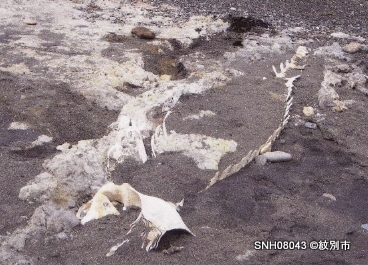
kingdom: Animalia
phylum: Chordata
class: Mammalia
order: Cetacea
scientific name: Cetacea
